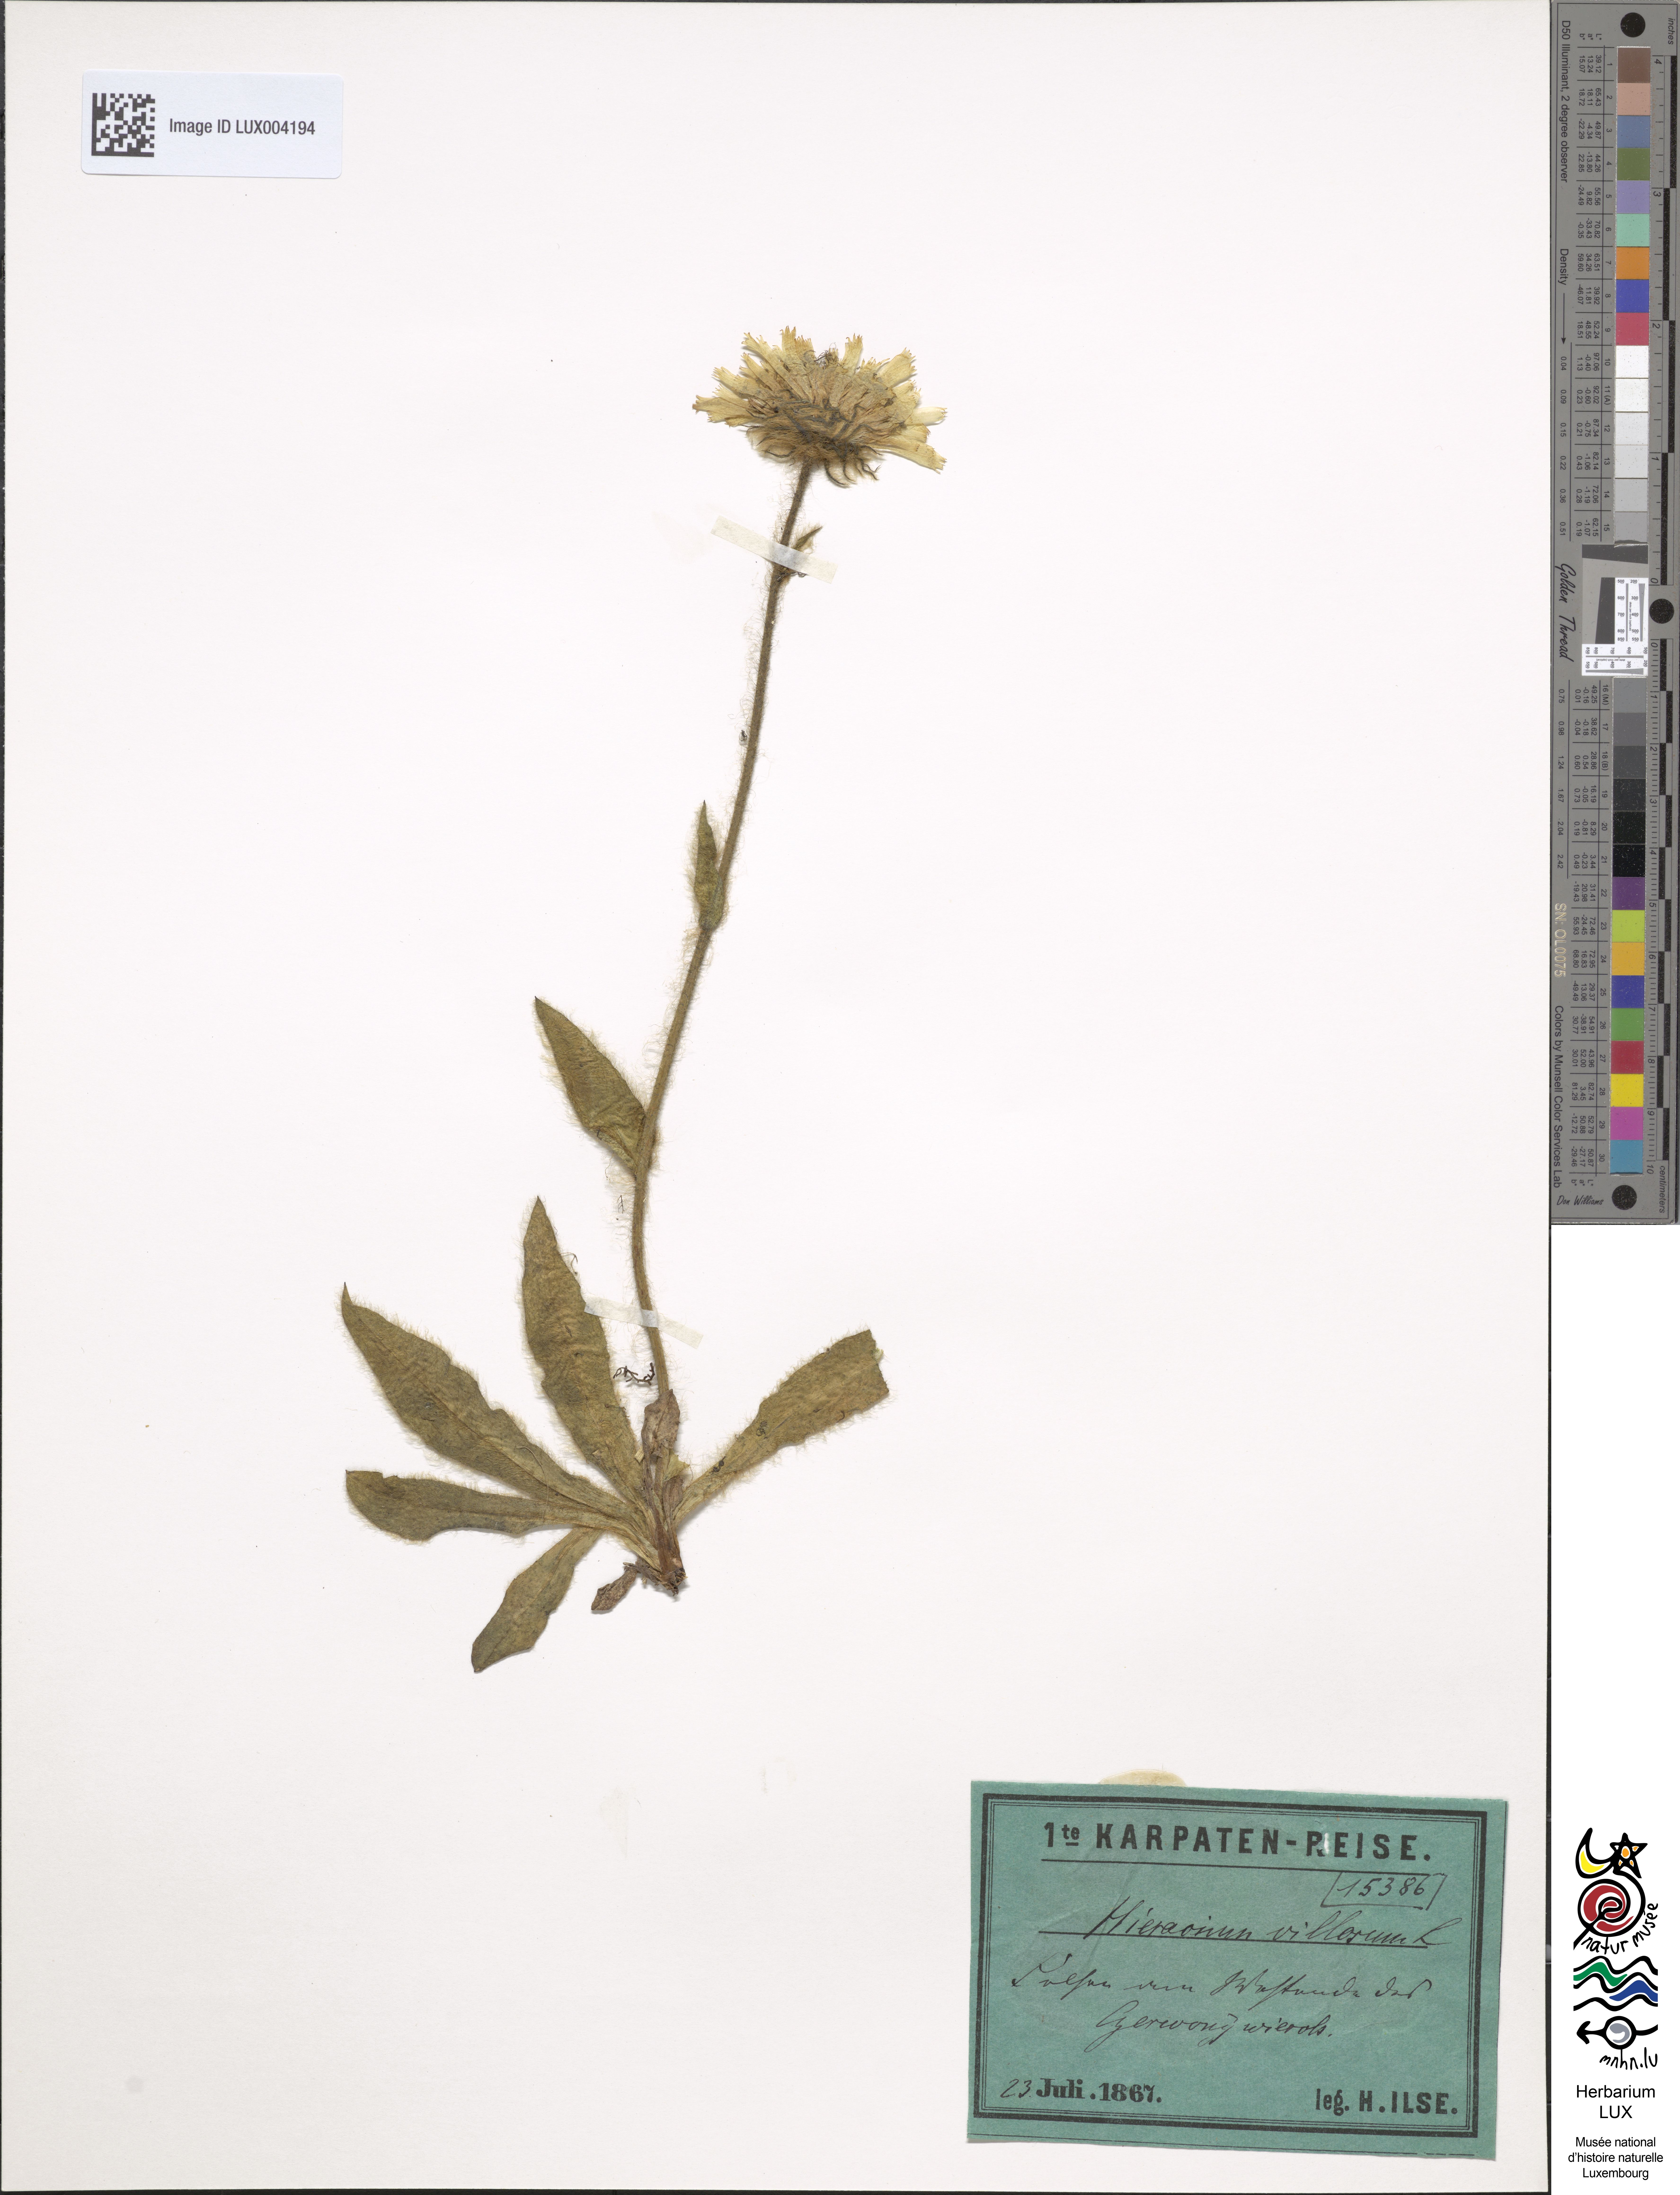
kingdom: Plantae
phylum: Tracheophyta
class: Magnoliopsida
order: Asterales
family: Asteraceae
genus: Hieracium
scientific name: Hieracium villosum
